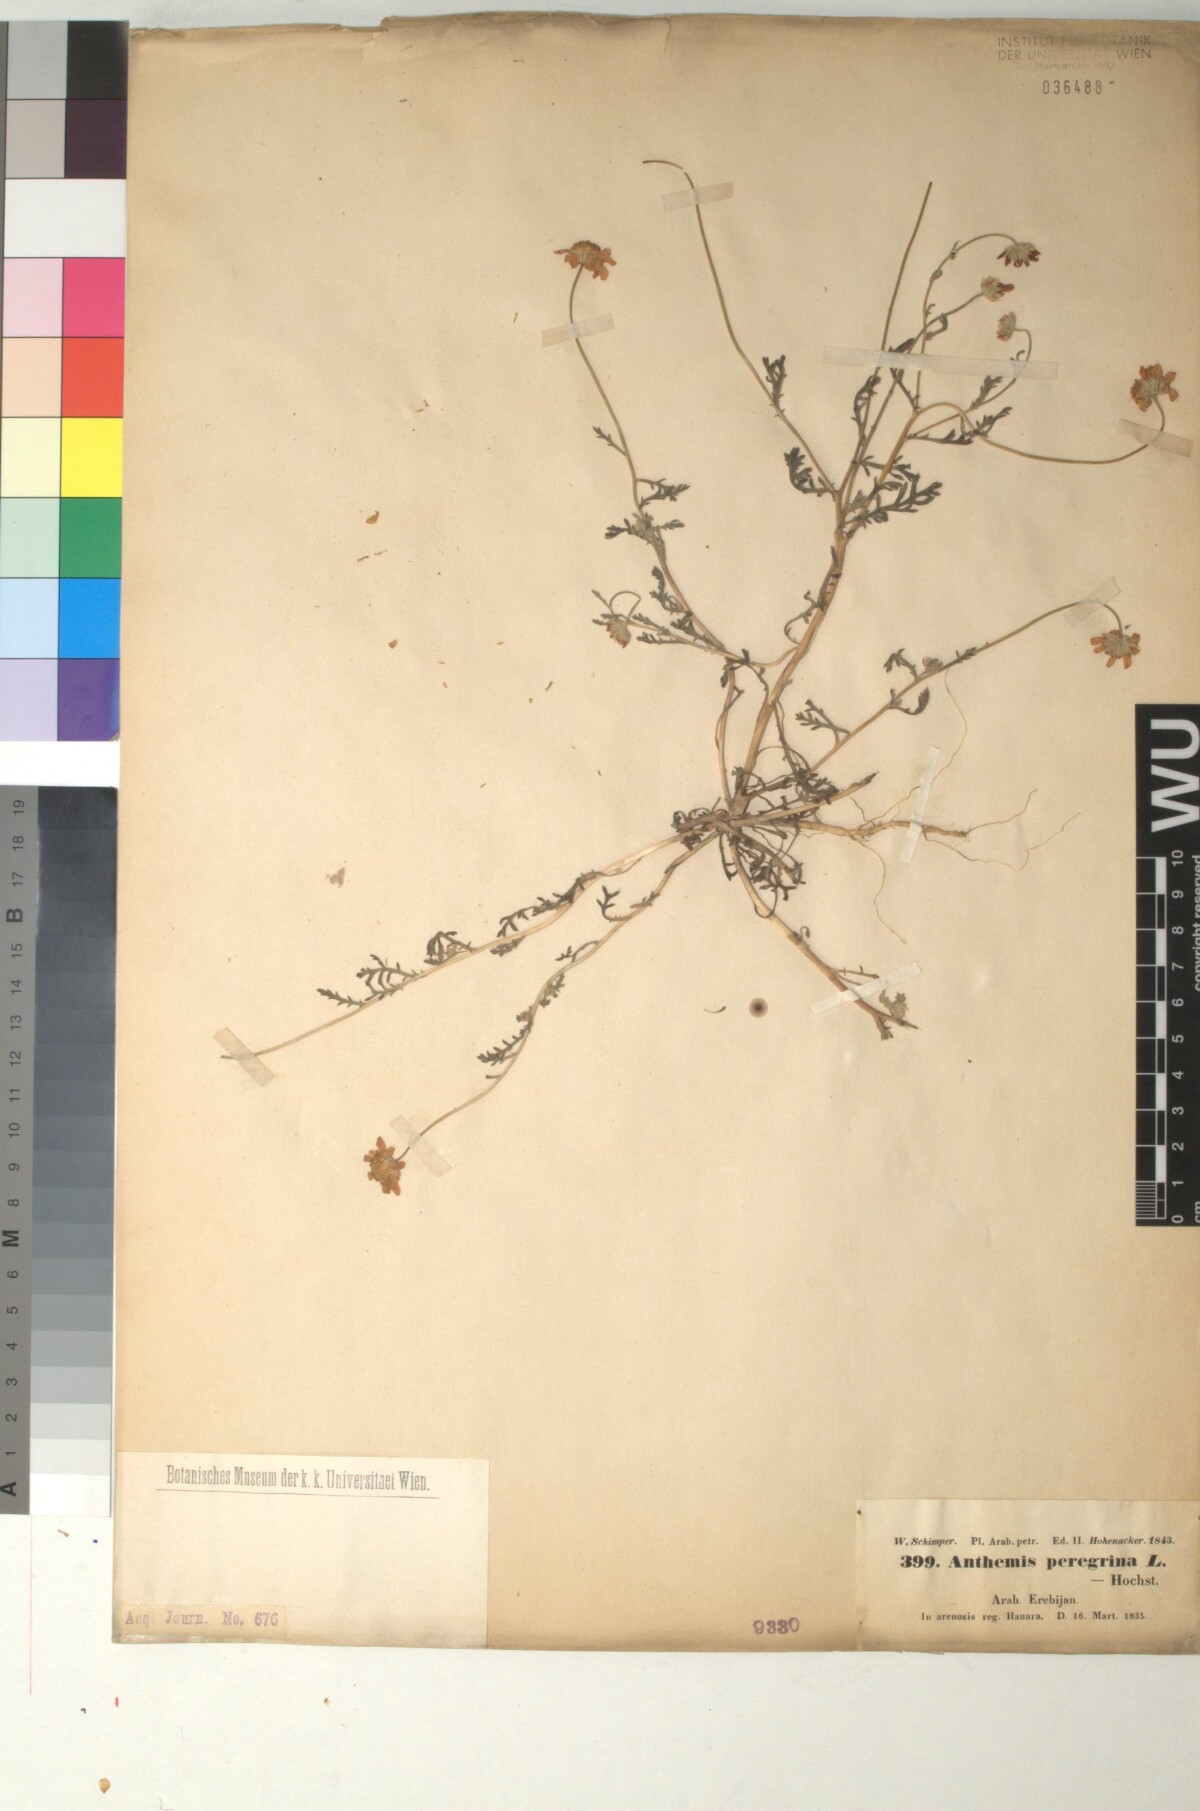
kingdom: Plantae
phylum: Tracheophyta
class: Magnoliopsida
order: Asterales
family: Asteraceae
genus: Anthemis
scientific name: Anthemis tomentosa
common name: Woolly chamomile
